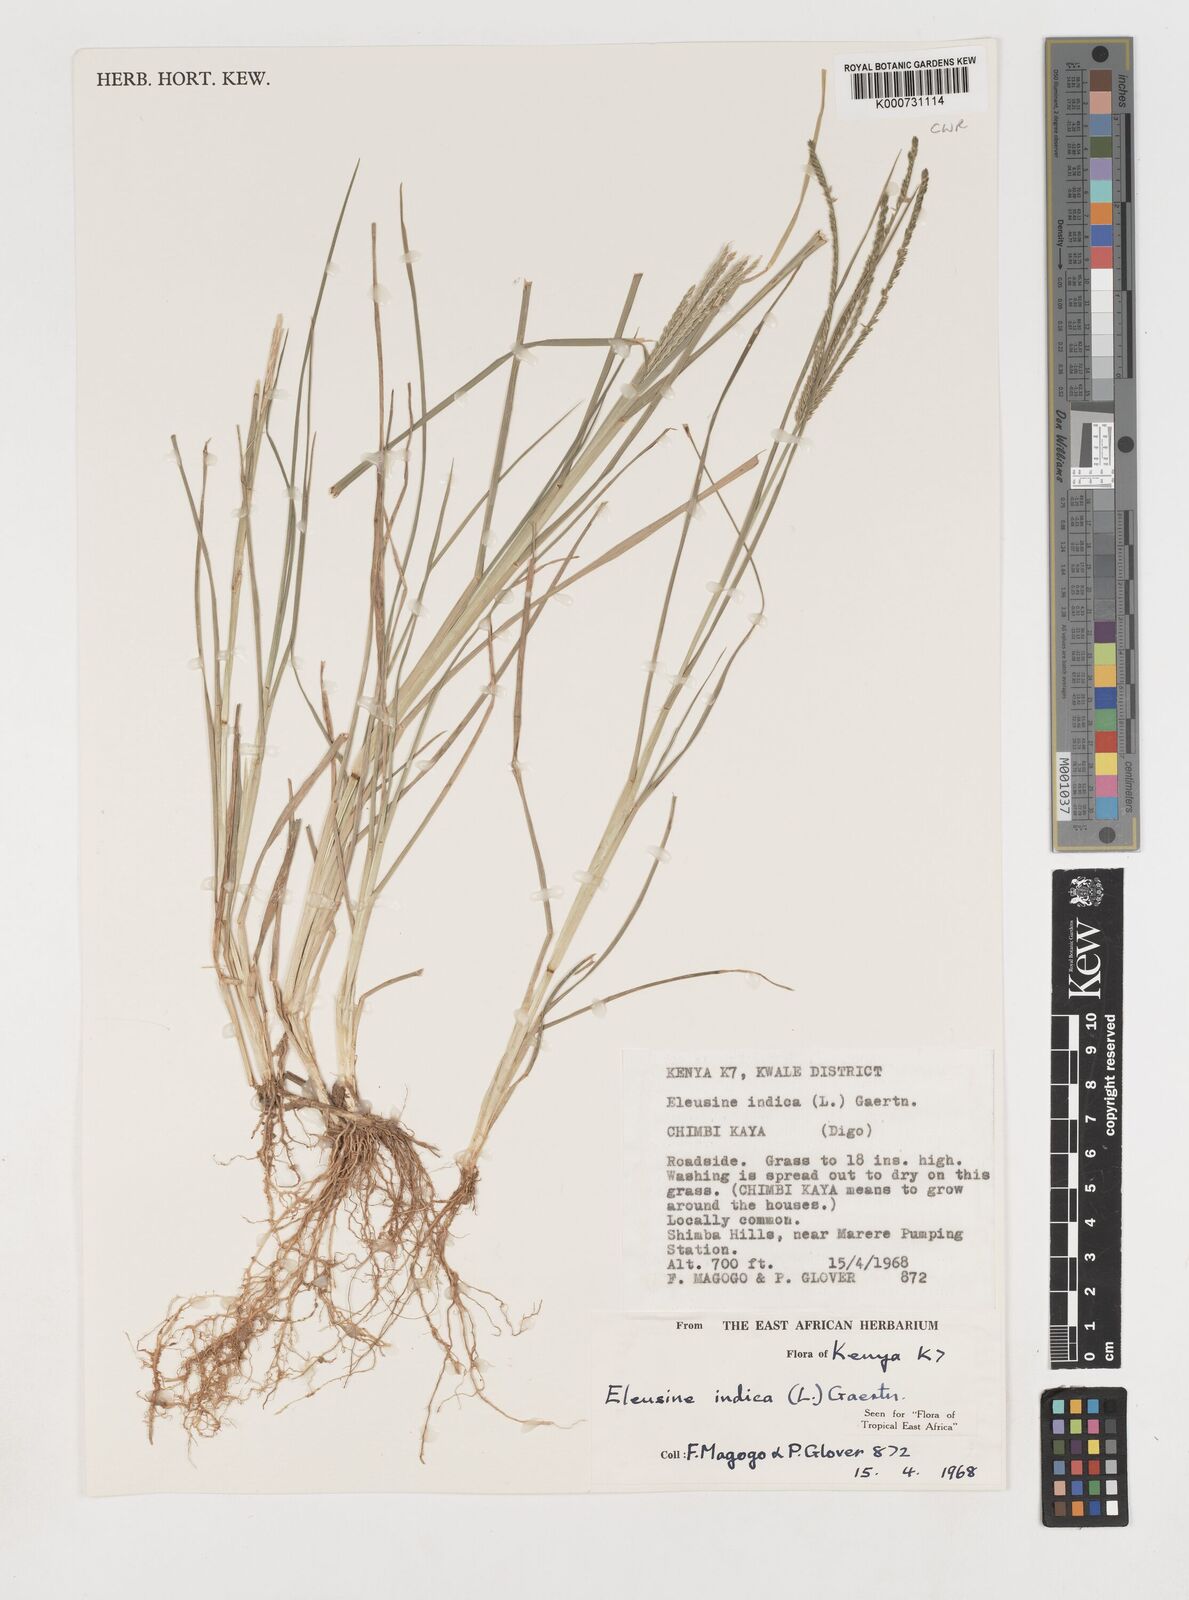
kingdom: Plantae
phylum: Tracheophyta
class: Liliopsida
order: Poales
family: Poaceae
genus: Eleusine
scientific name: Eleusine indica
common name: Yard-grass
